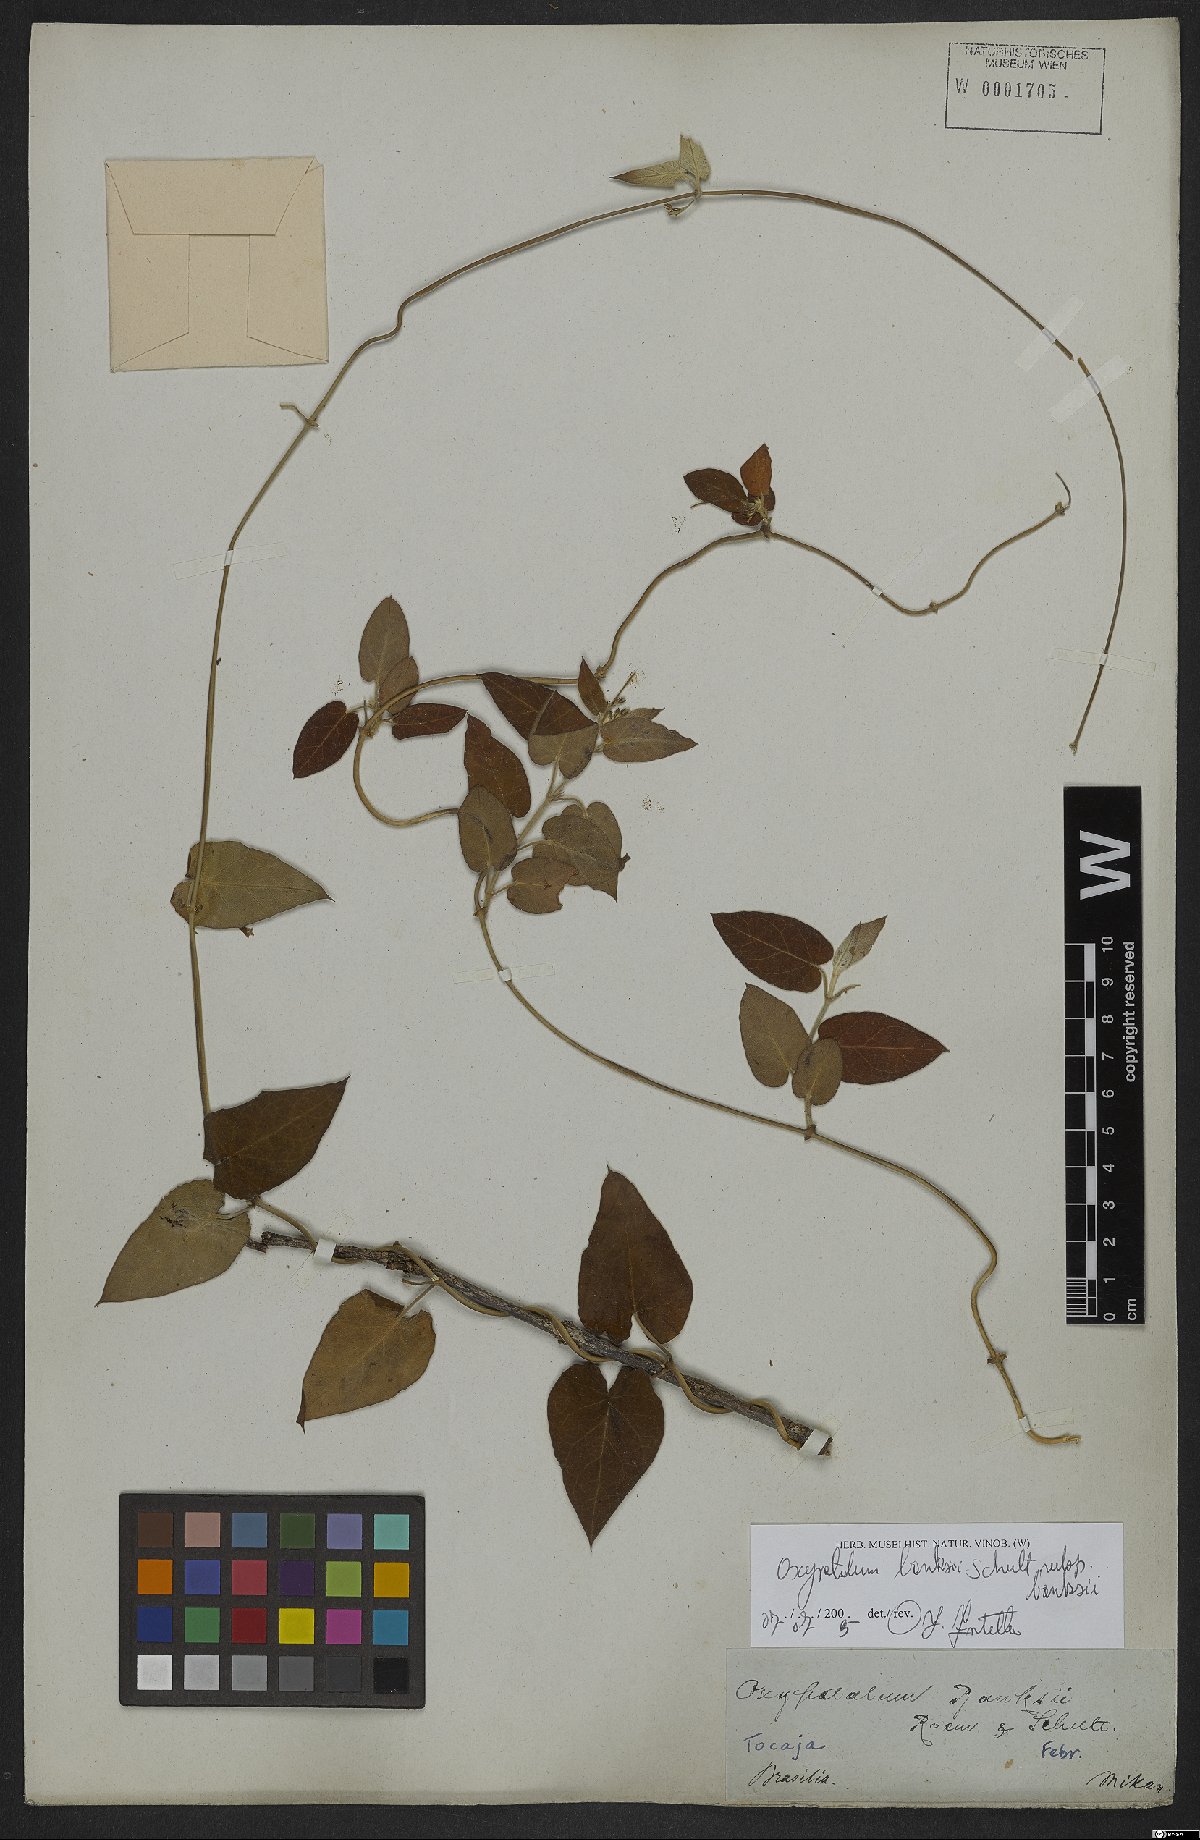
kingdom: Plantae
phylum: Tracheophyta
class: Magnoliopsida
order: Gentianales
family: Apocynaceae
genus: Oxypetalum
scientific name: Oxypetalum banksii
